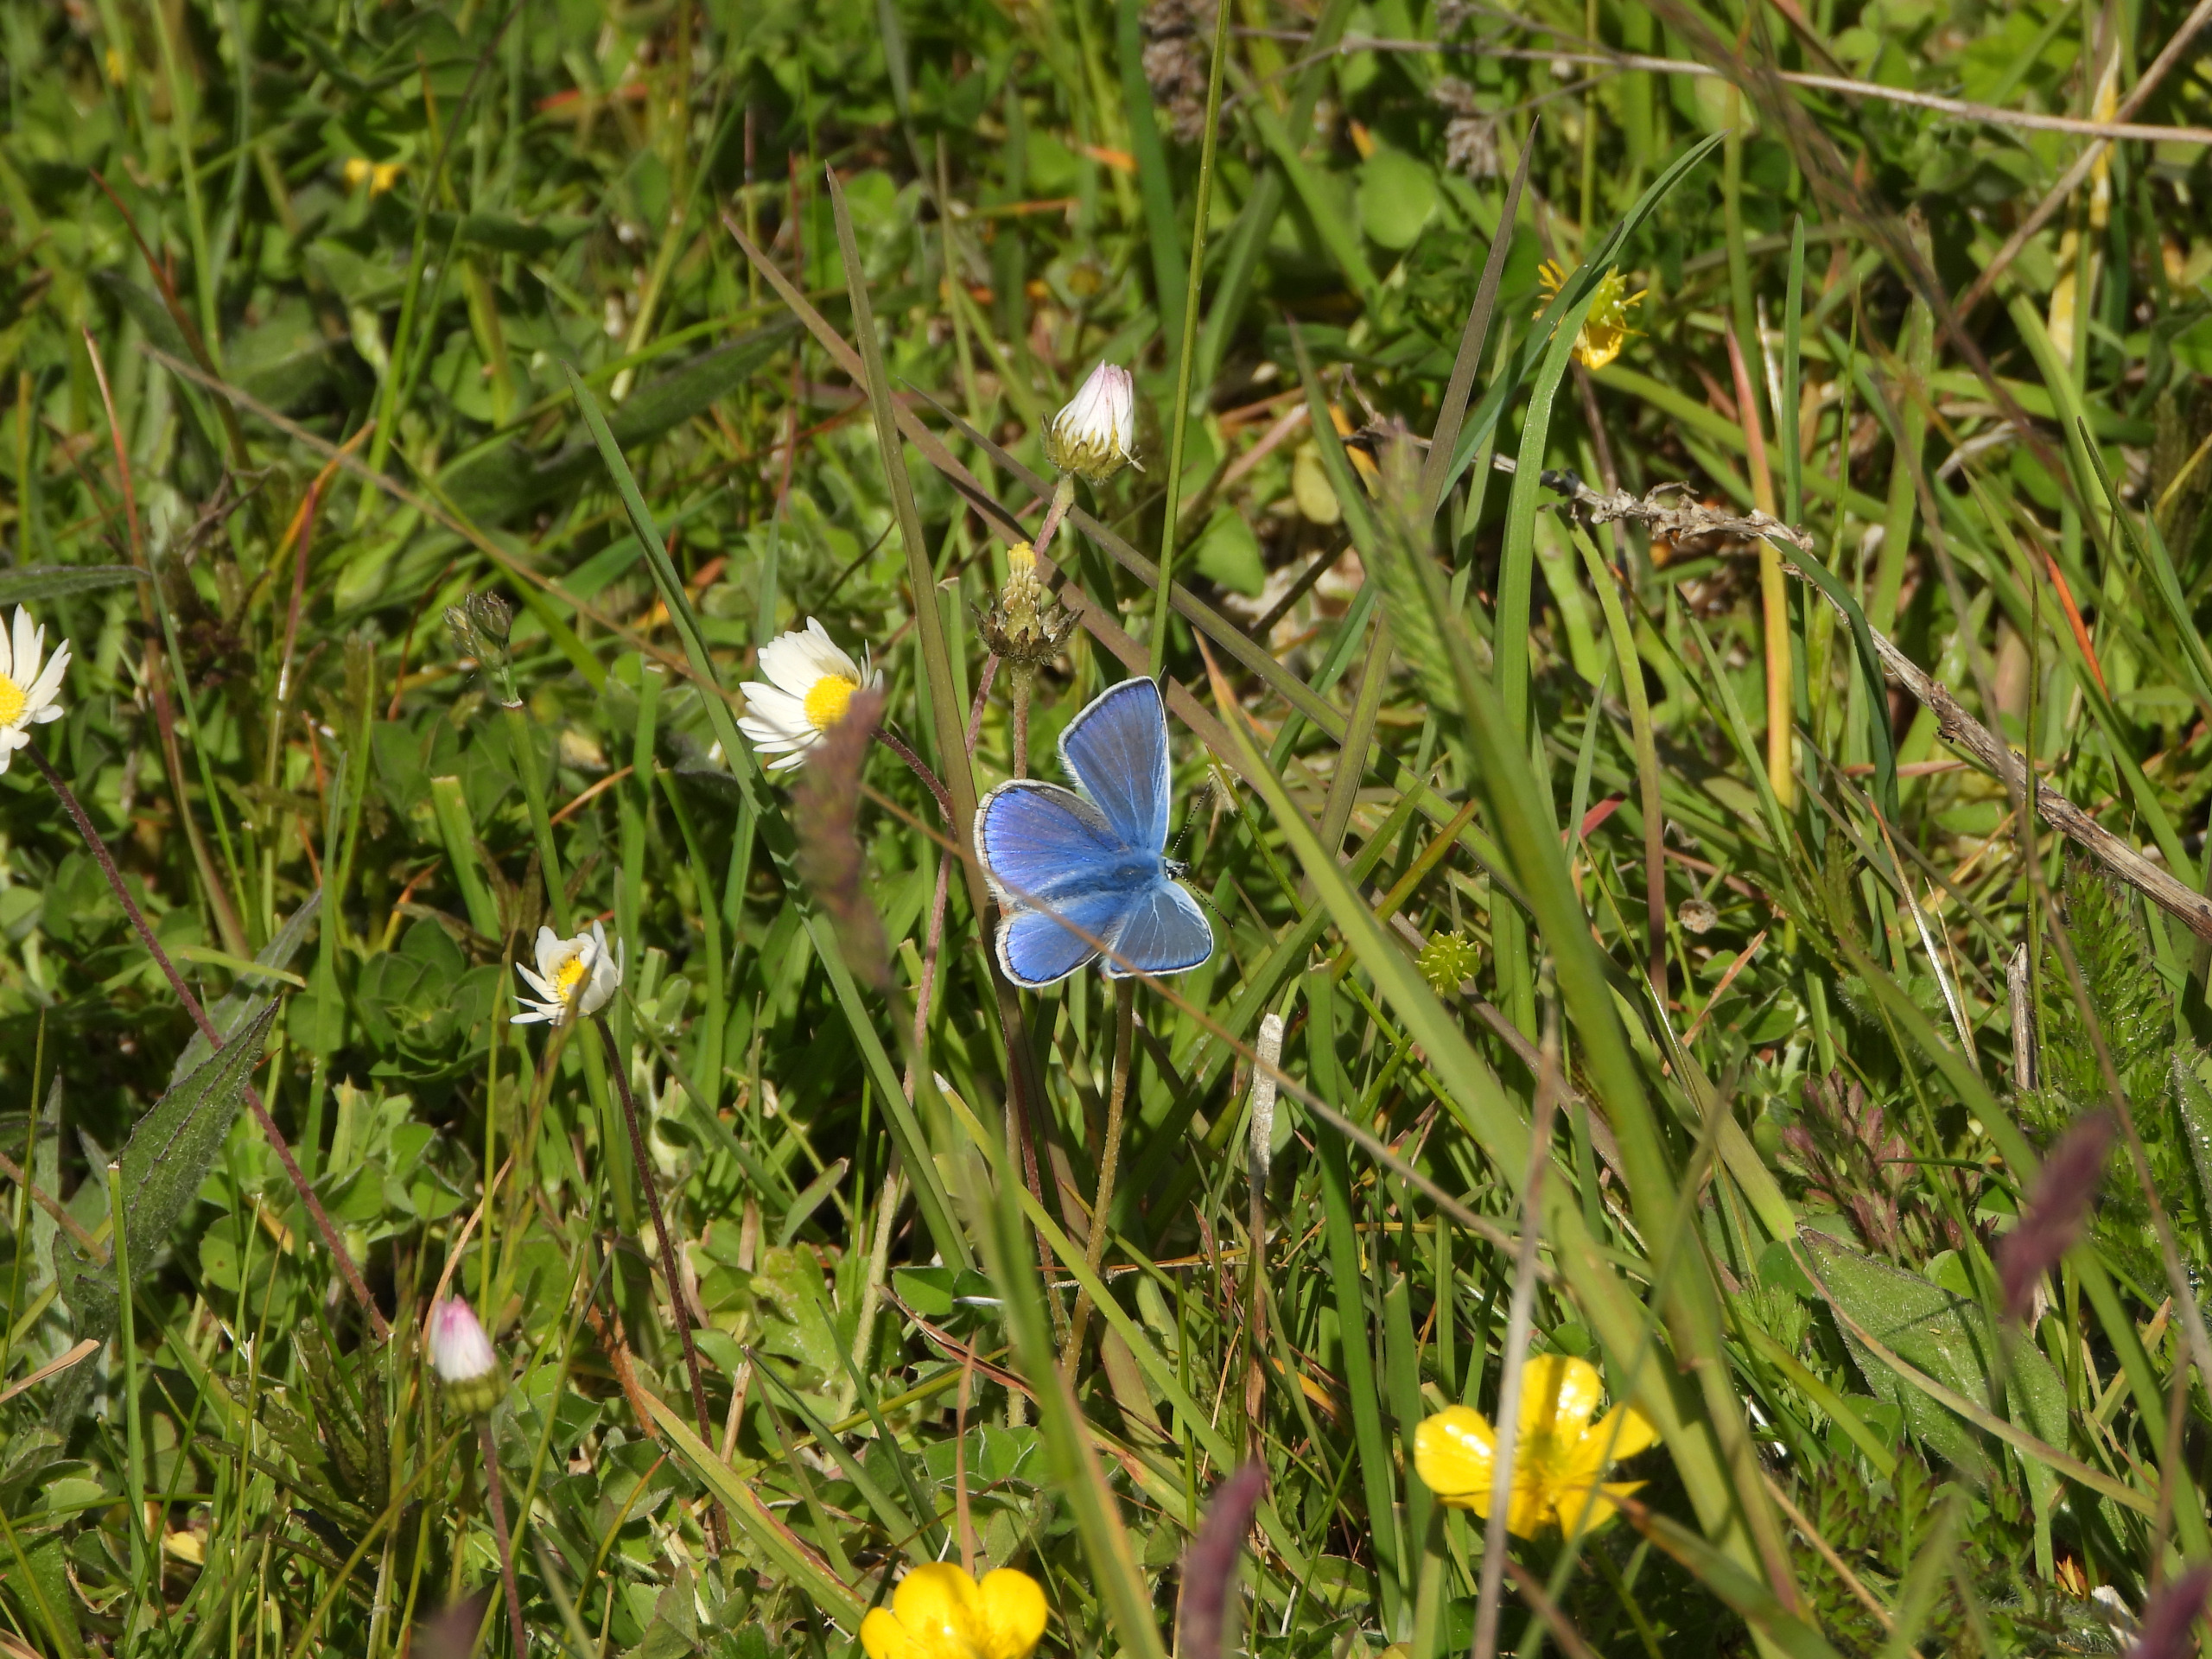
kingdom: Animalia
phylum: Arthropoda
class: Insecta
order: Lepidoptera
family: Lycaenidae
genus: Polyommatus
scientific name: Polyommatus icarus
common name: Almindelig blåfugl
